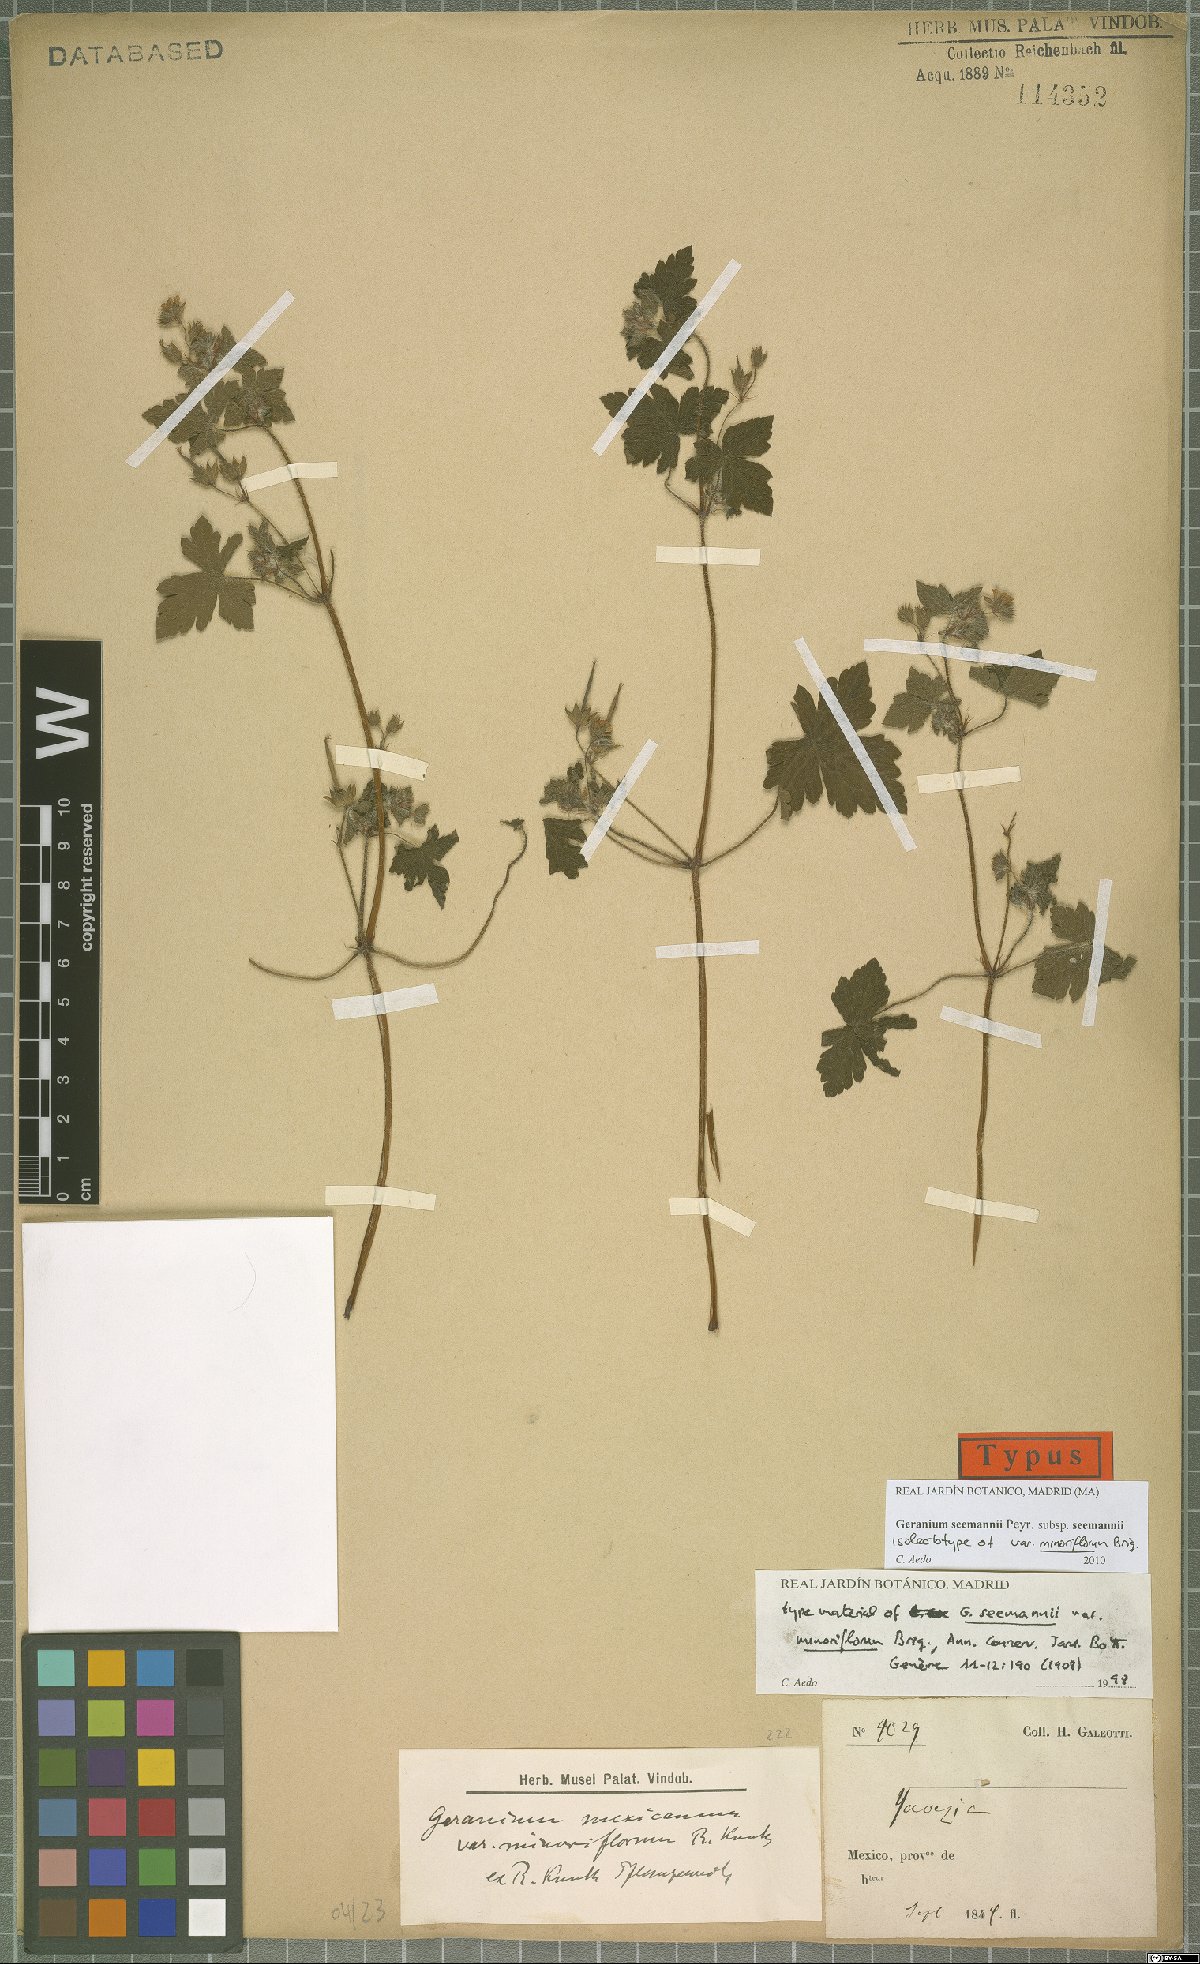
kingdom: Plantae
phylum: Tracheophyta
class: Magnoliopsida
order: Geraniales
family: Geraniaceae
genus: Geranium
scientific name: Geranium seemannii
